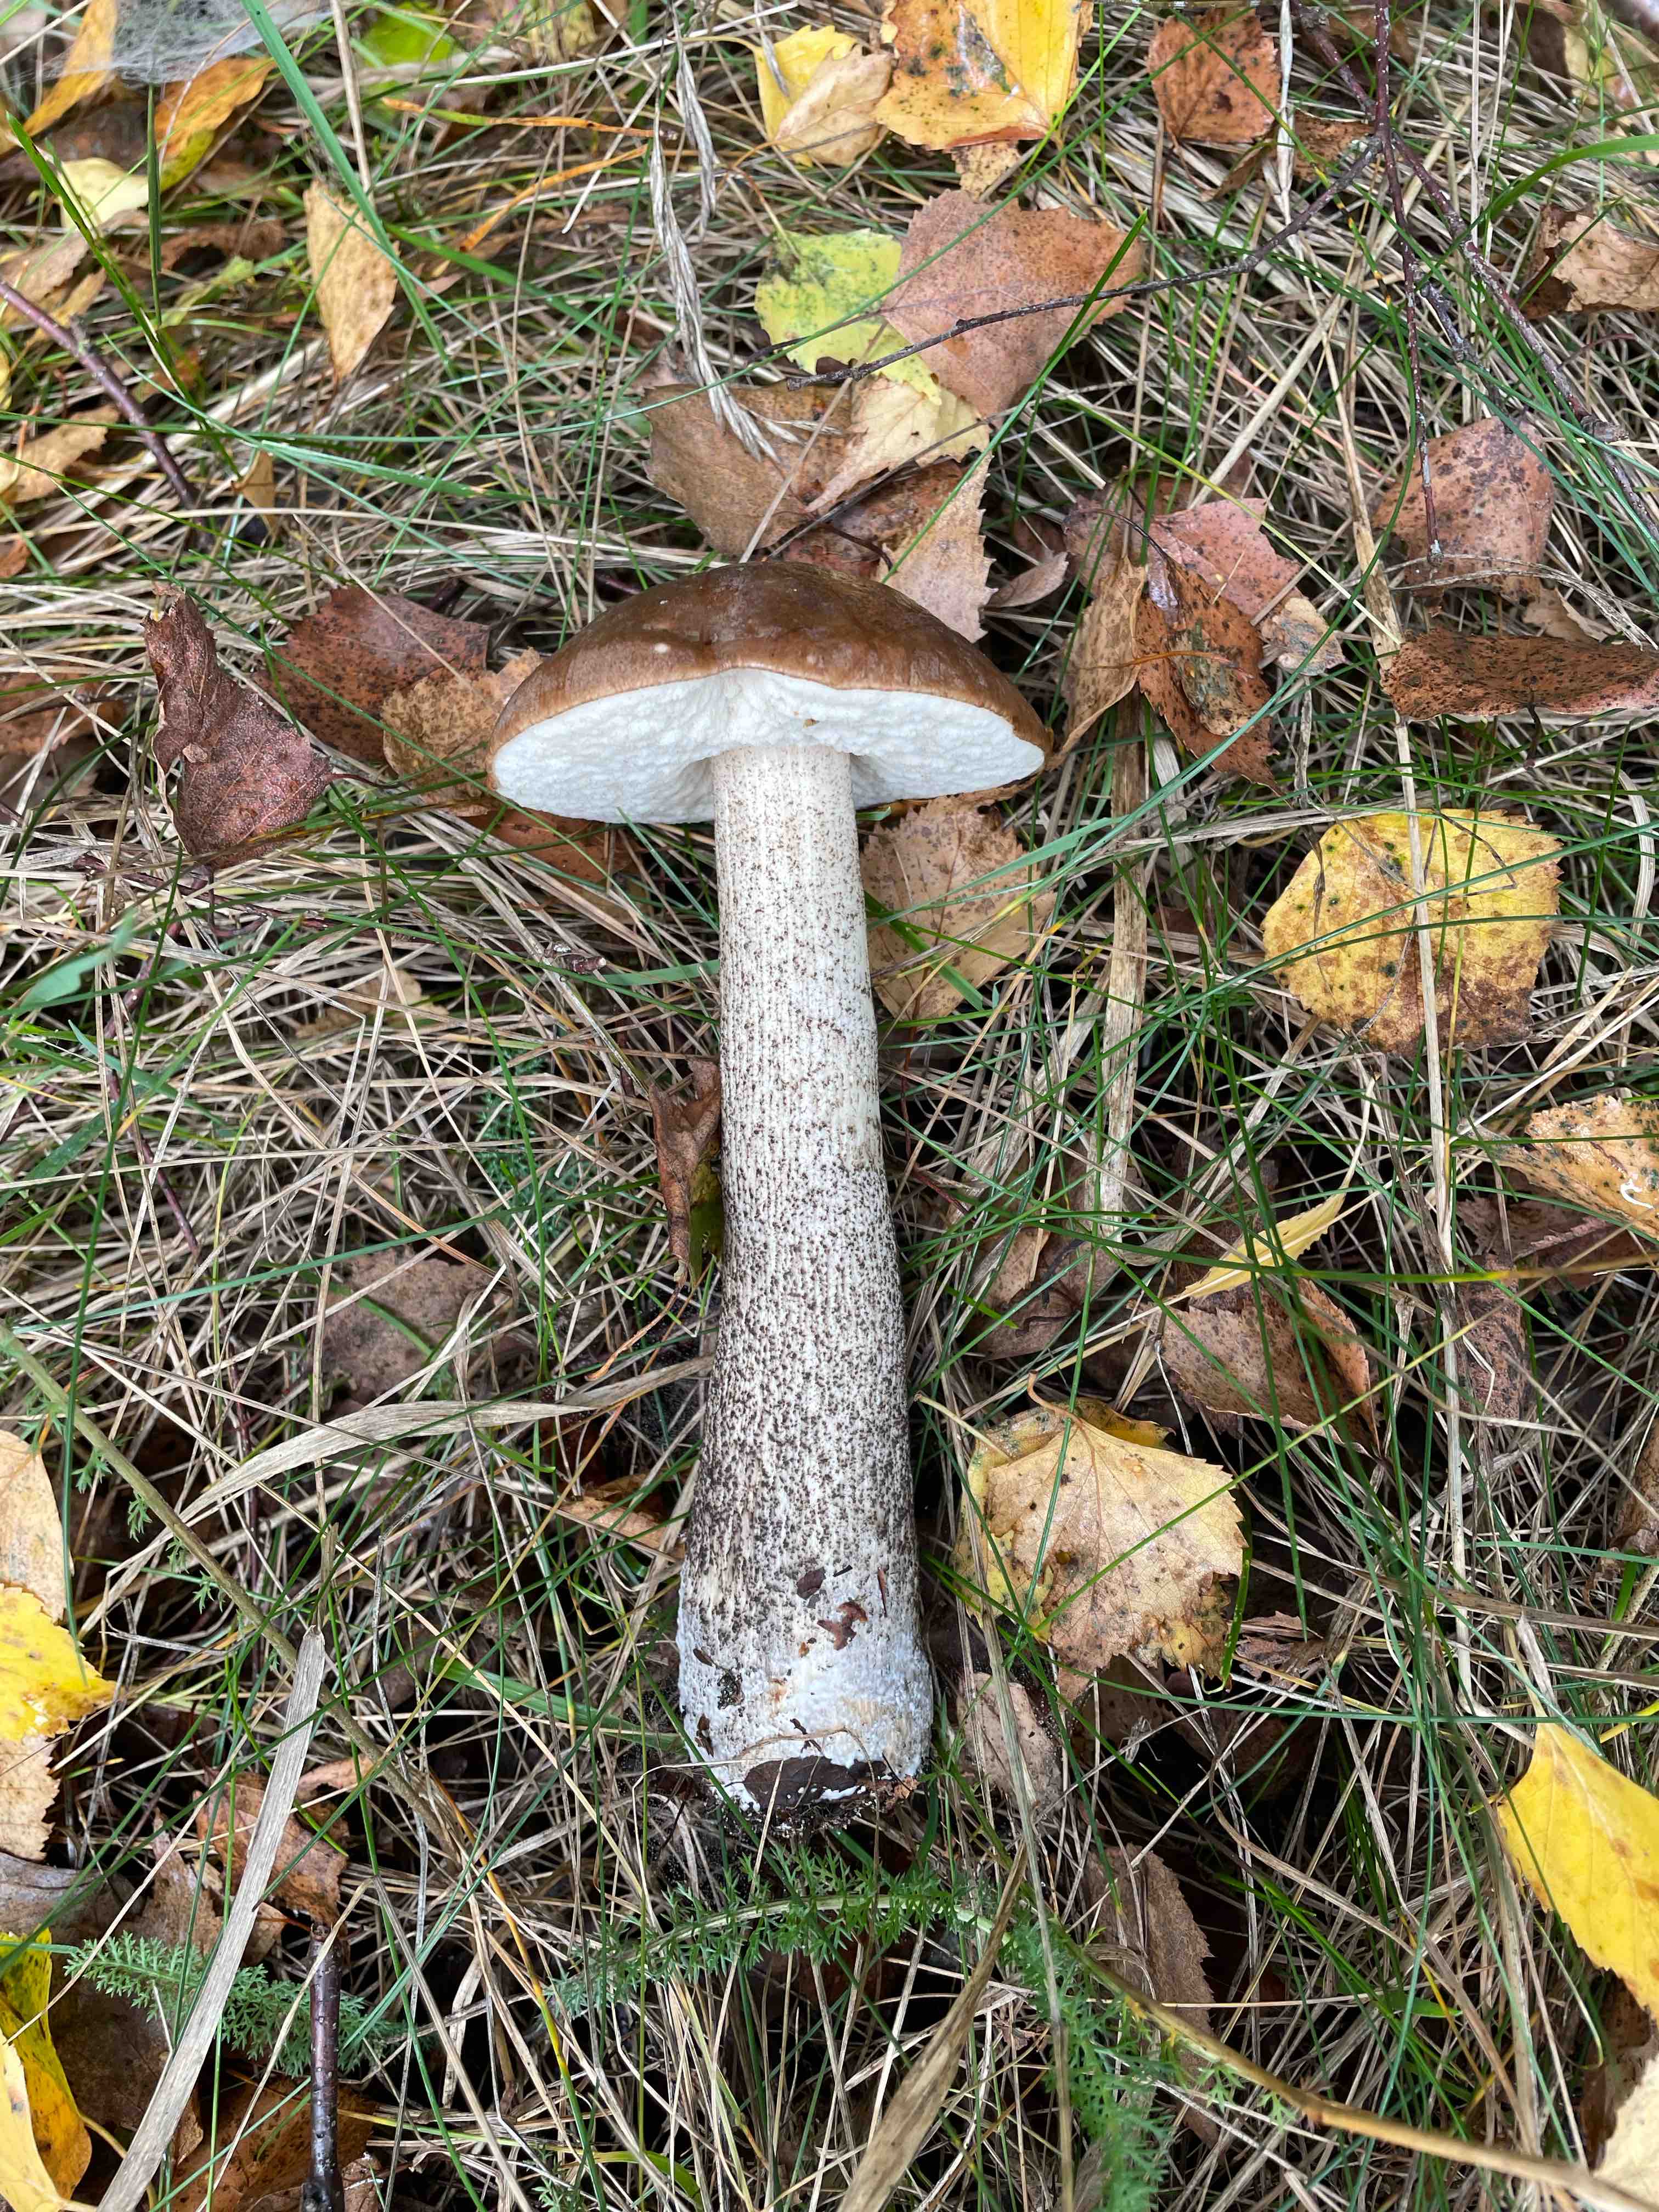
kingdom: Fungi
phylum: Basidiomycota
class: Agaricomycetes
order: Boletales
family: Boletaceae
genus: Leccinum
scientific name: Leccinum scabrum
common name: brun skælrørhat
